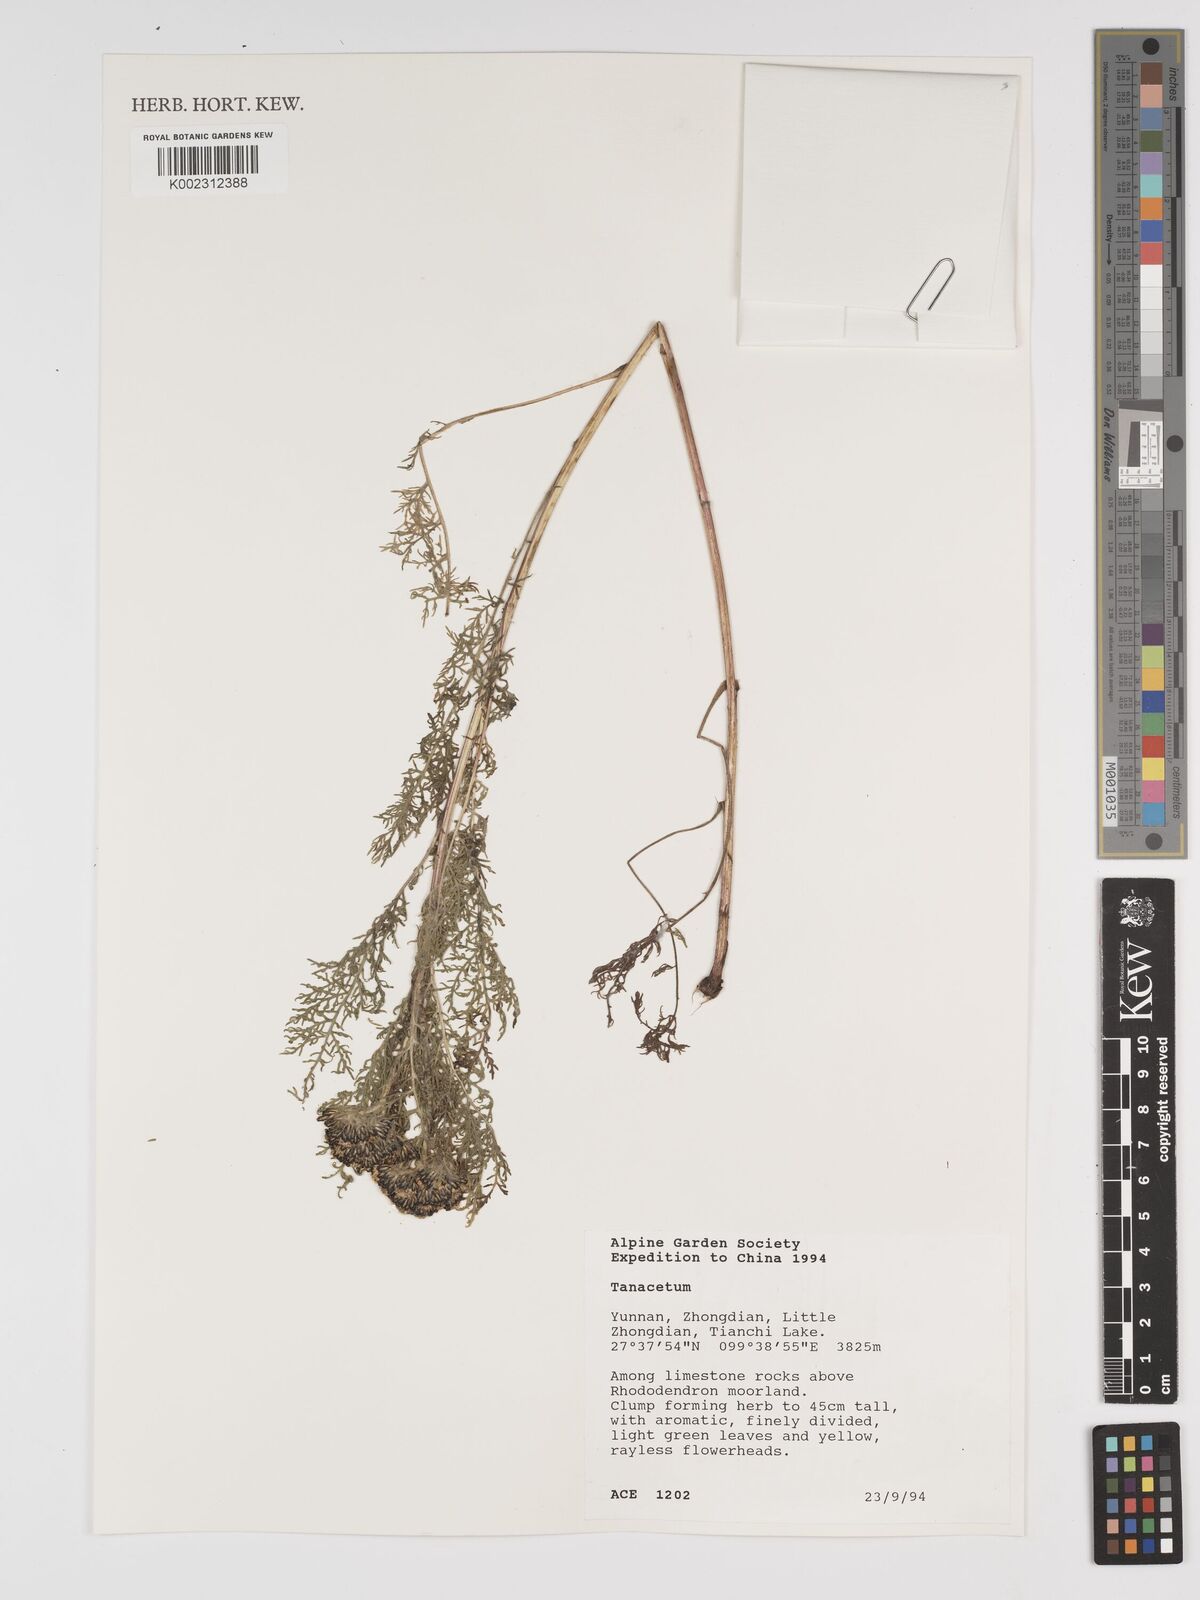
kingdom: Plantae
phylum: Tracheophyta
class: Magnoliopsida
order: Asterales
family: Asteraceae
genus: Tanacetum
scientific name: Tanacetum
